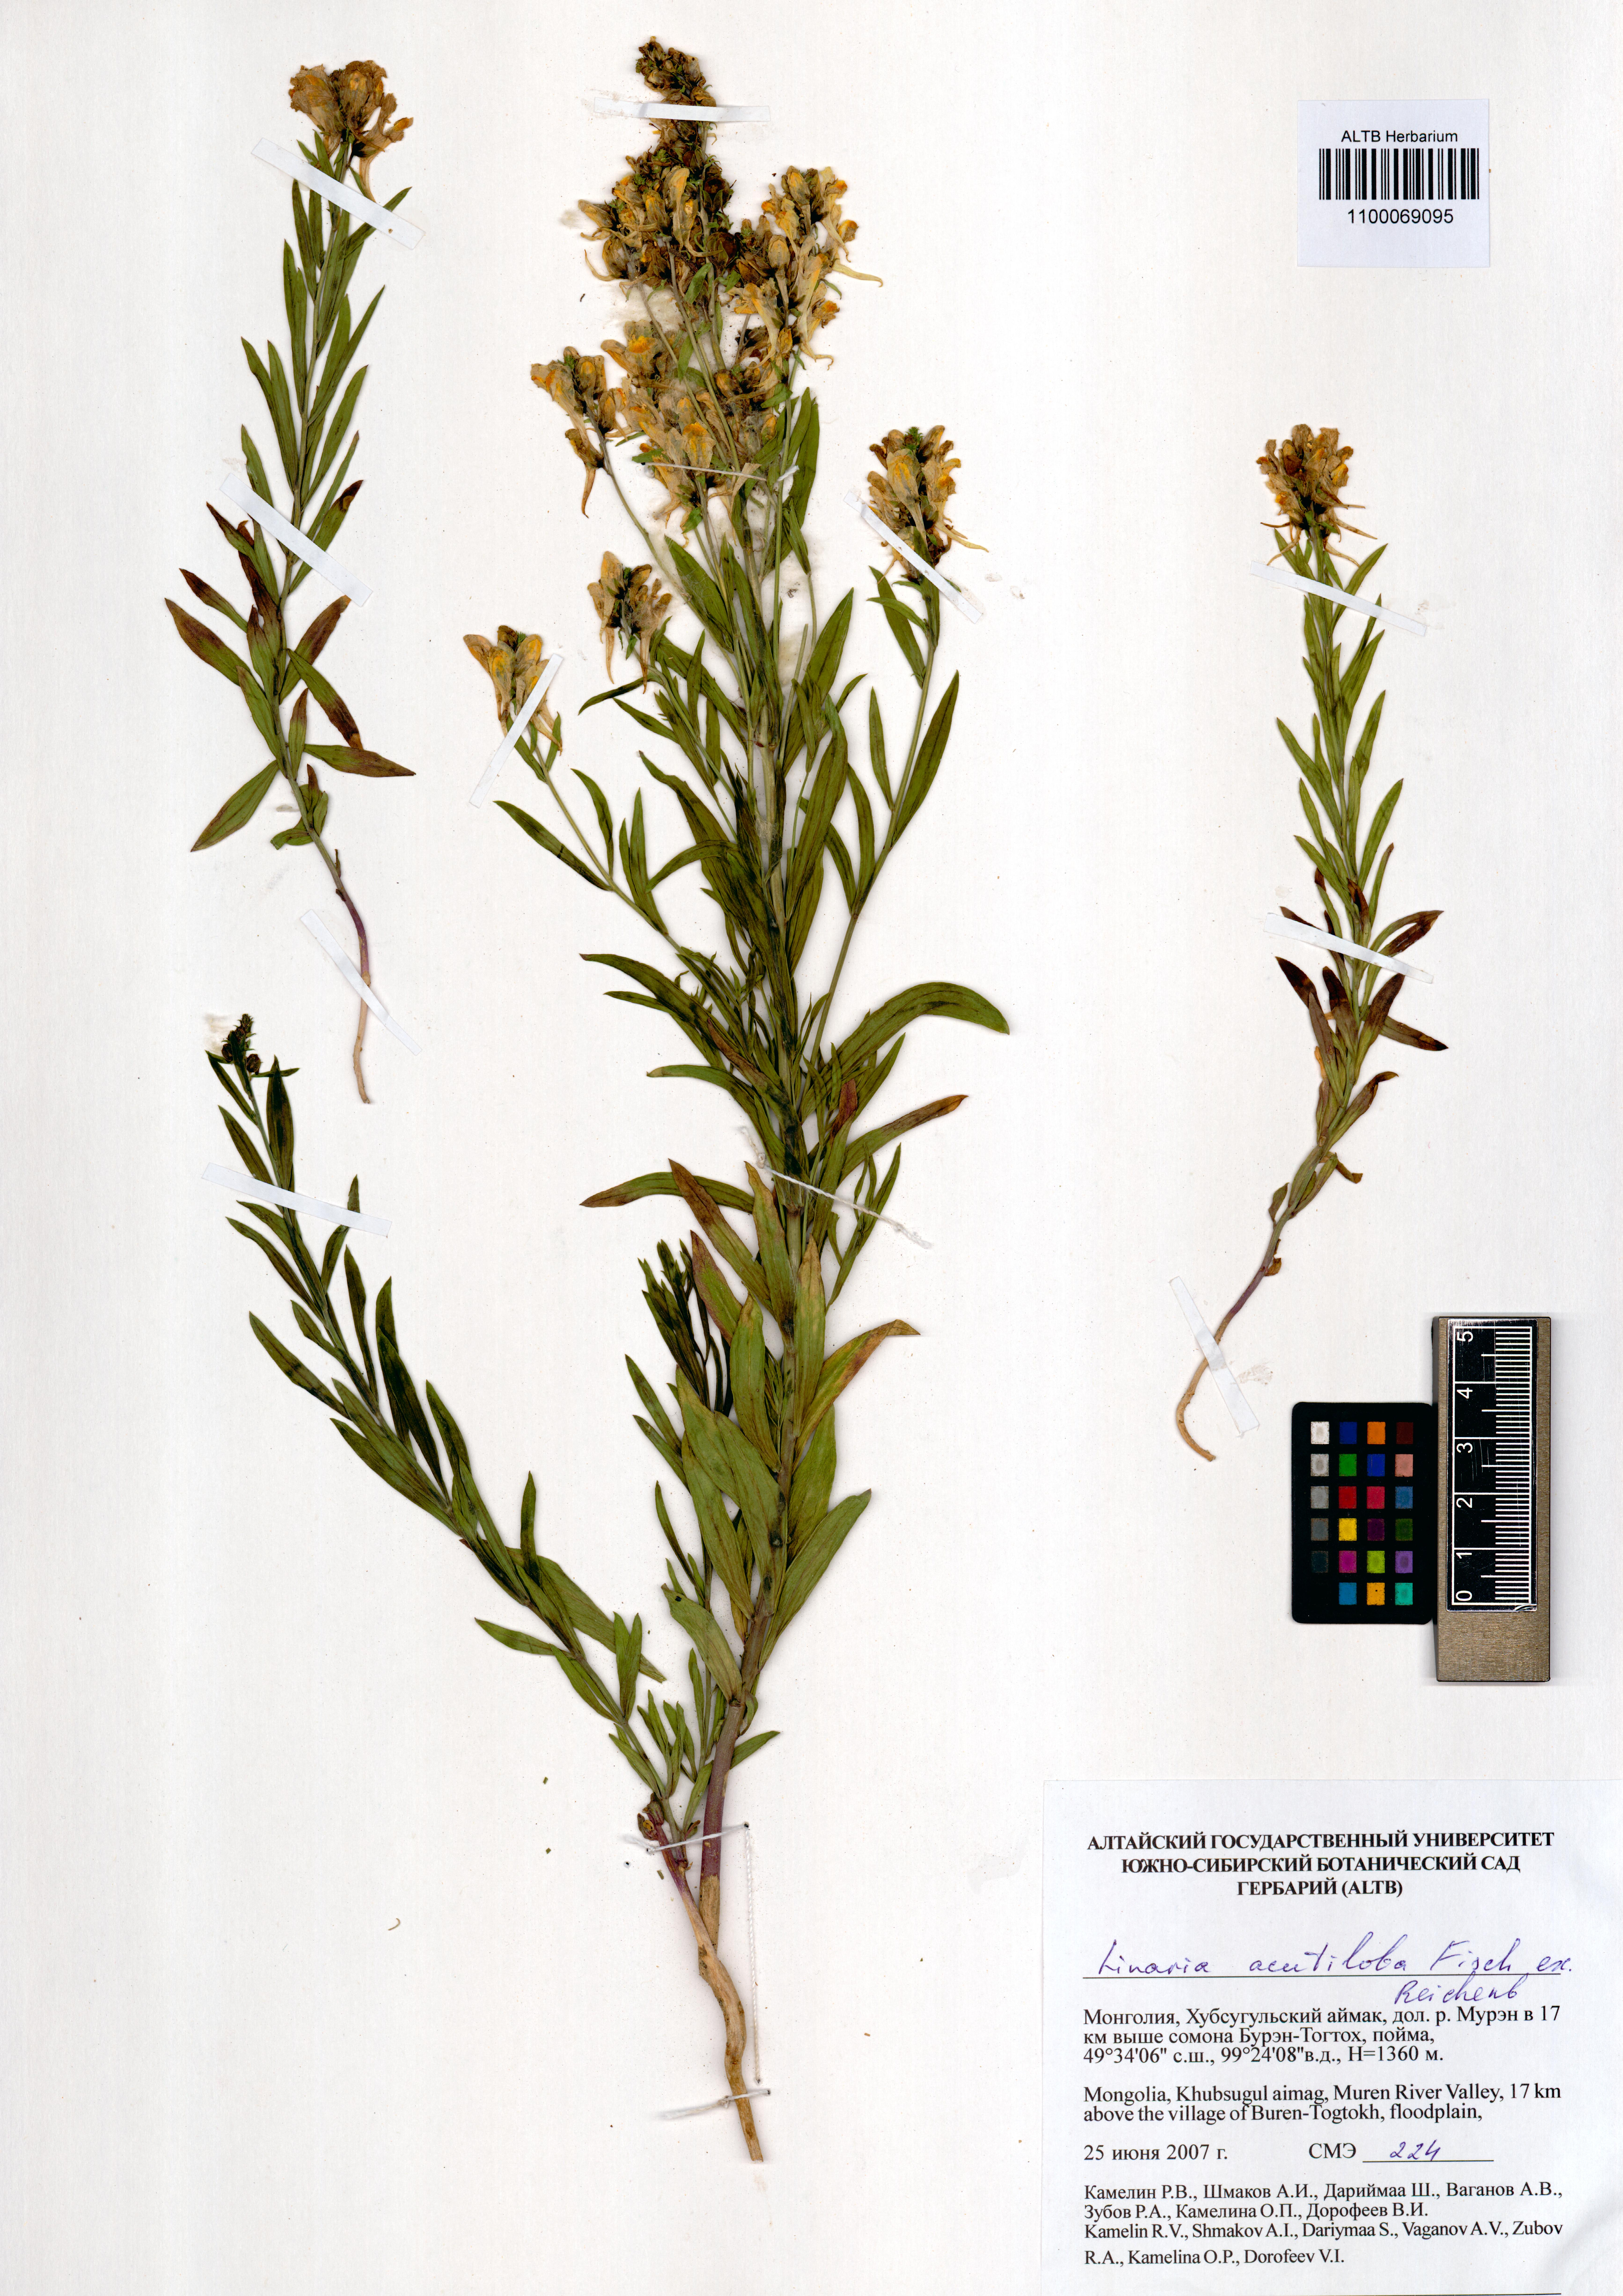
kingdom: Plantae
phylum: Tracheophyta
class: Magnoliopsida
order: Lamiales
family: Plantaginaceae
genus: Linaria
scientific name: Linaria acutiloba
